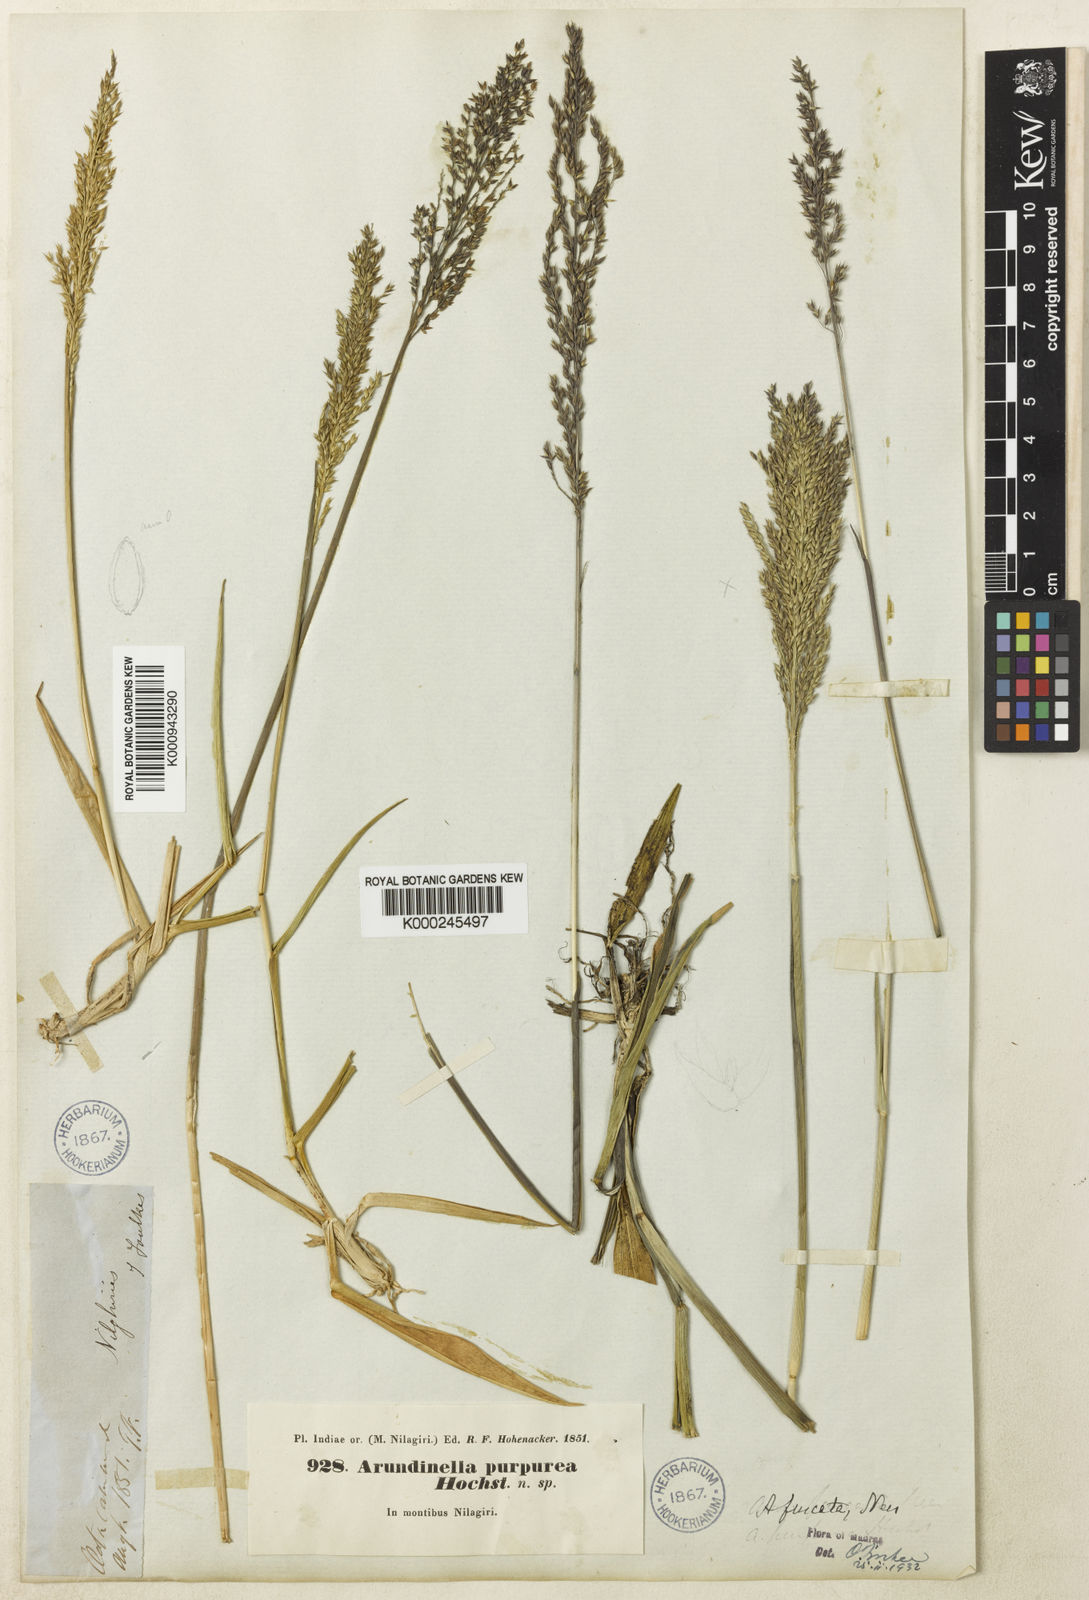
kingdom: Plantae
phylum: Tracheophyta
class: Liliopsida
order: Poales
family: Poaceae
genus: Arundinella
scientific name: Arundinella fuscata
